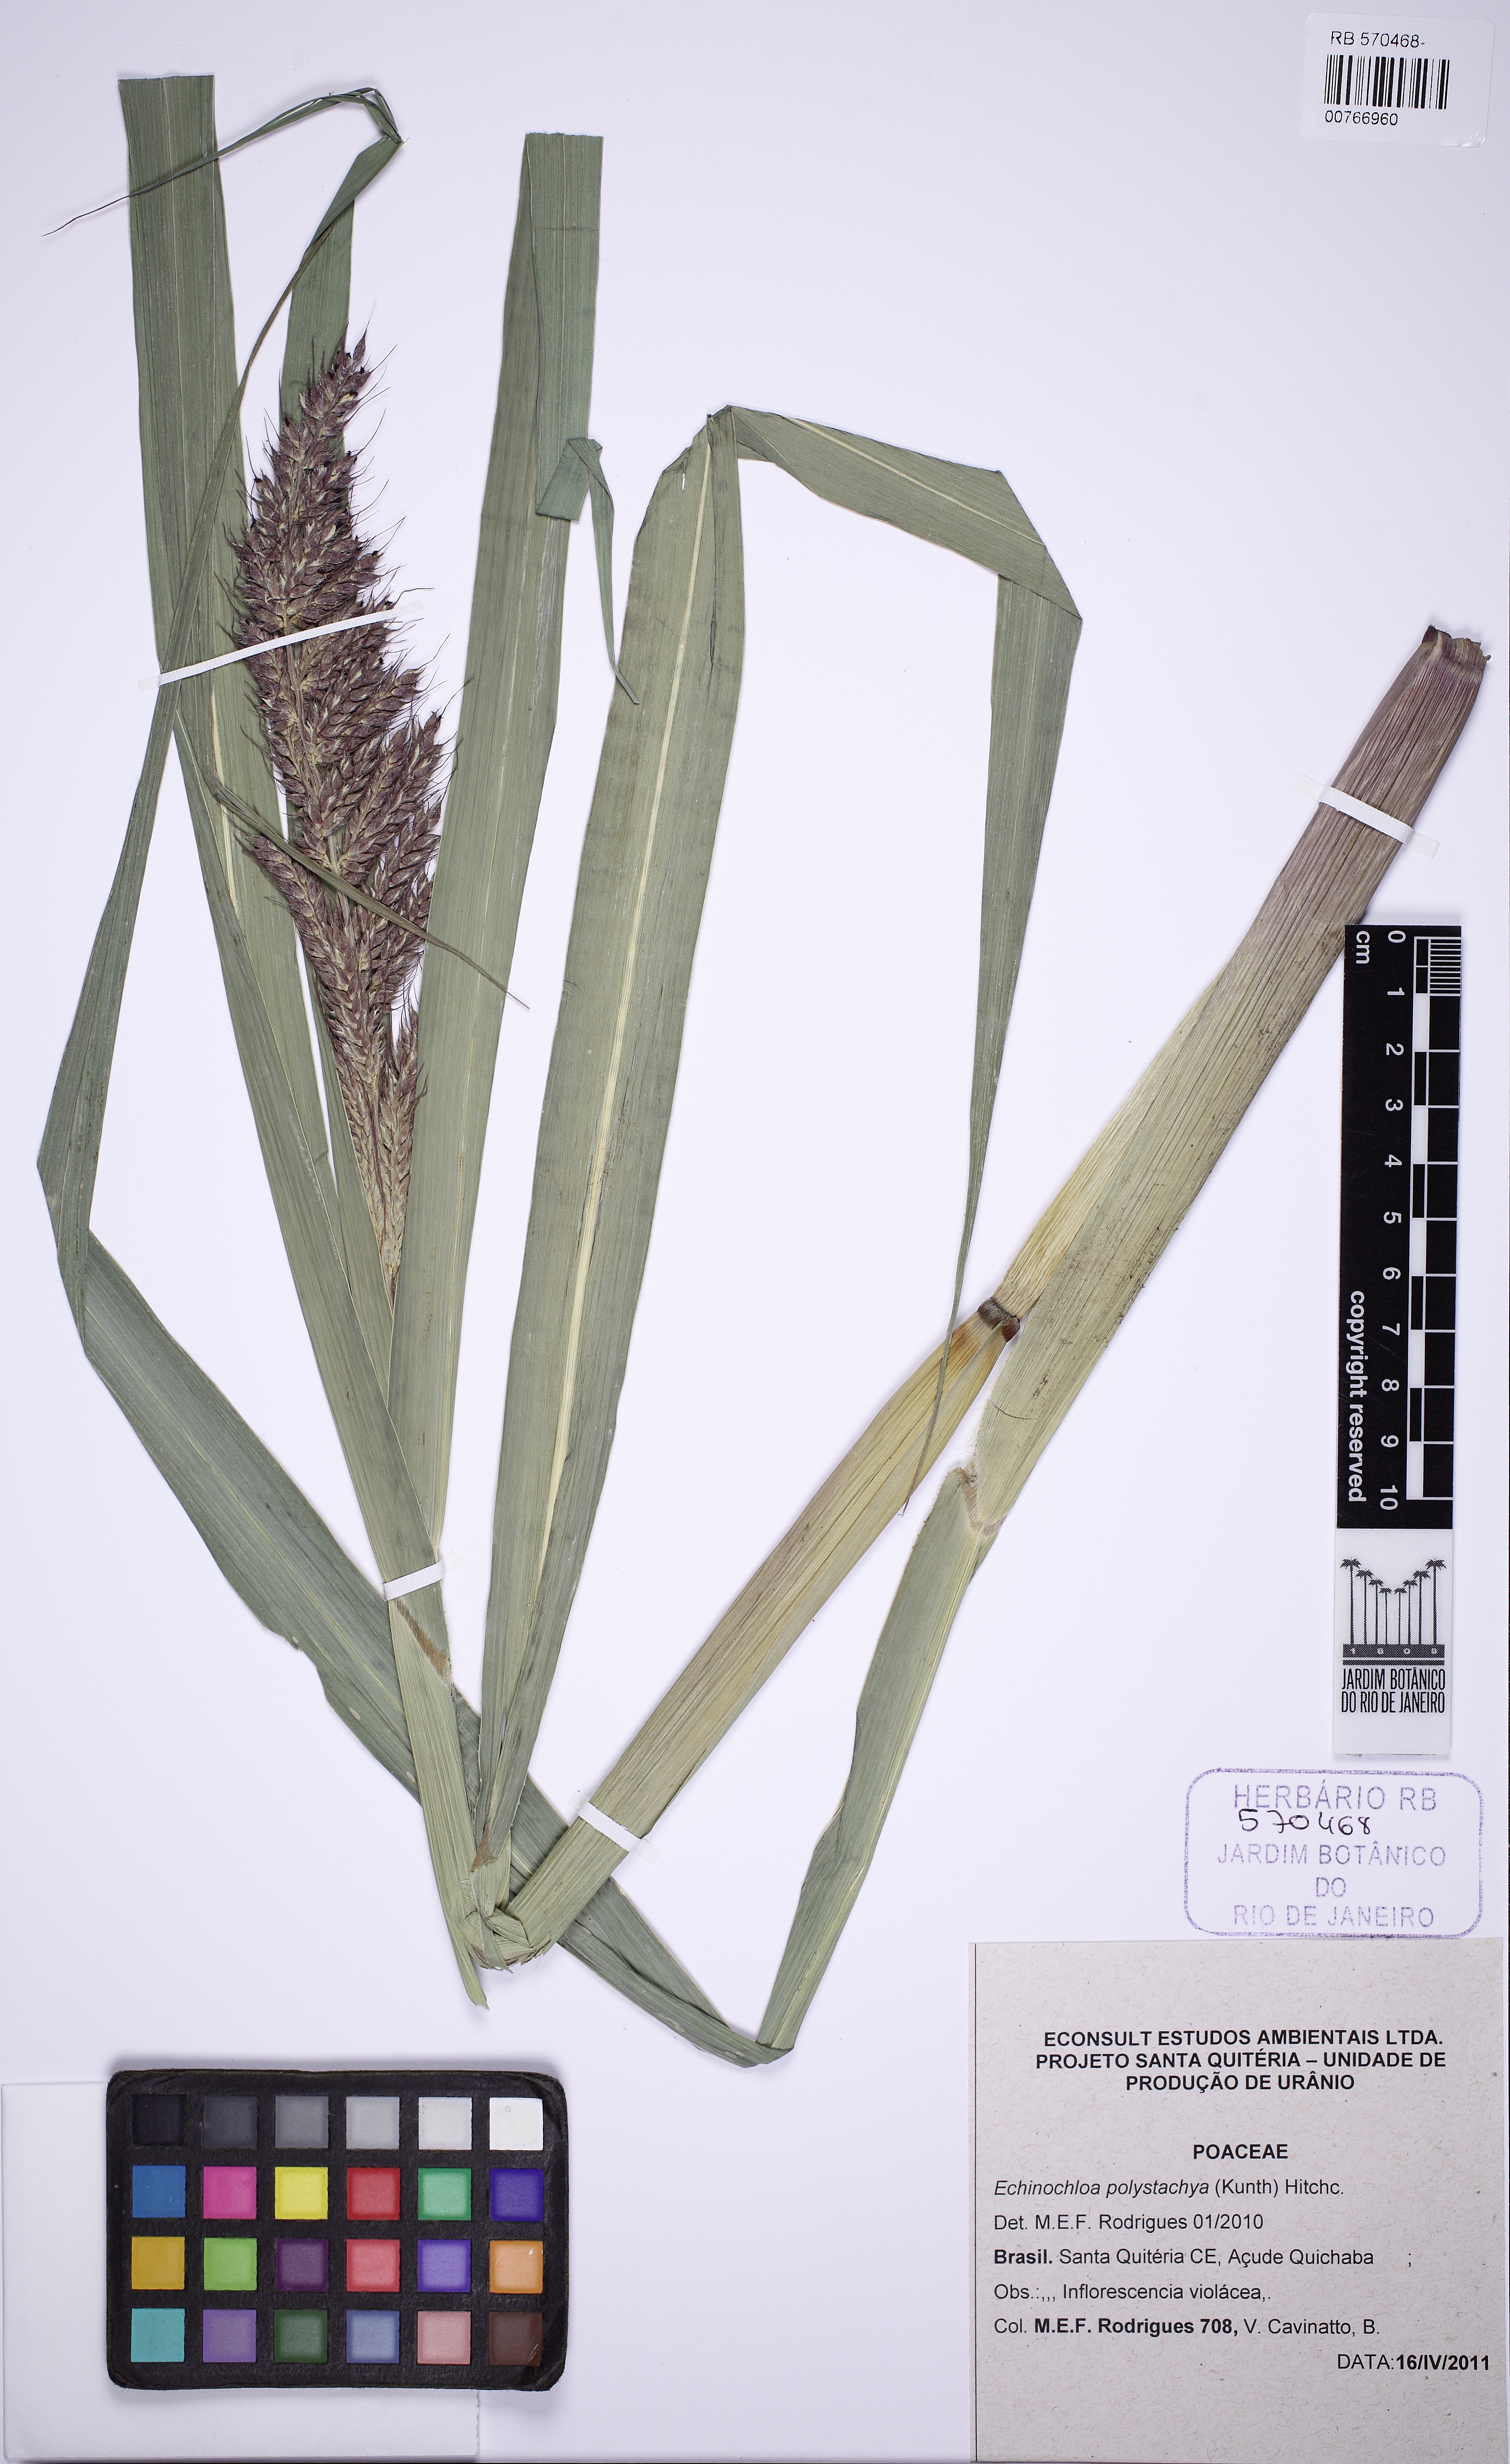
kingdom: Plantae
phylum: Tracheophyta
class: Liliopsida
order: Poales
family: Poaceae
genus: Echinochloa
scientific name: Echinochloa polystachya
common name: Creeping river grass
